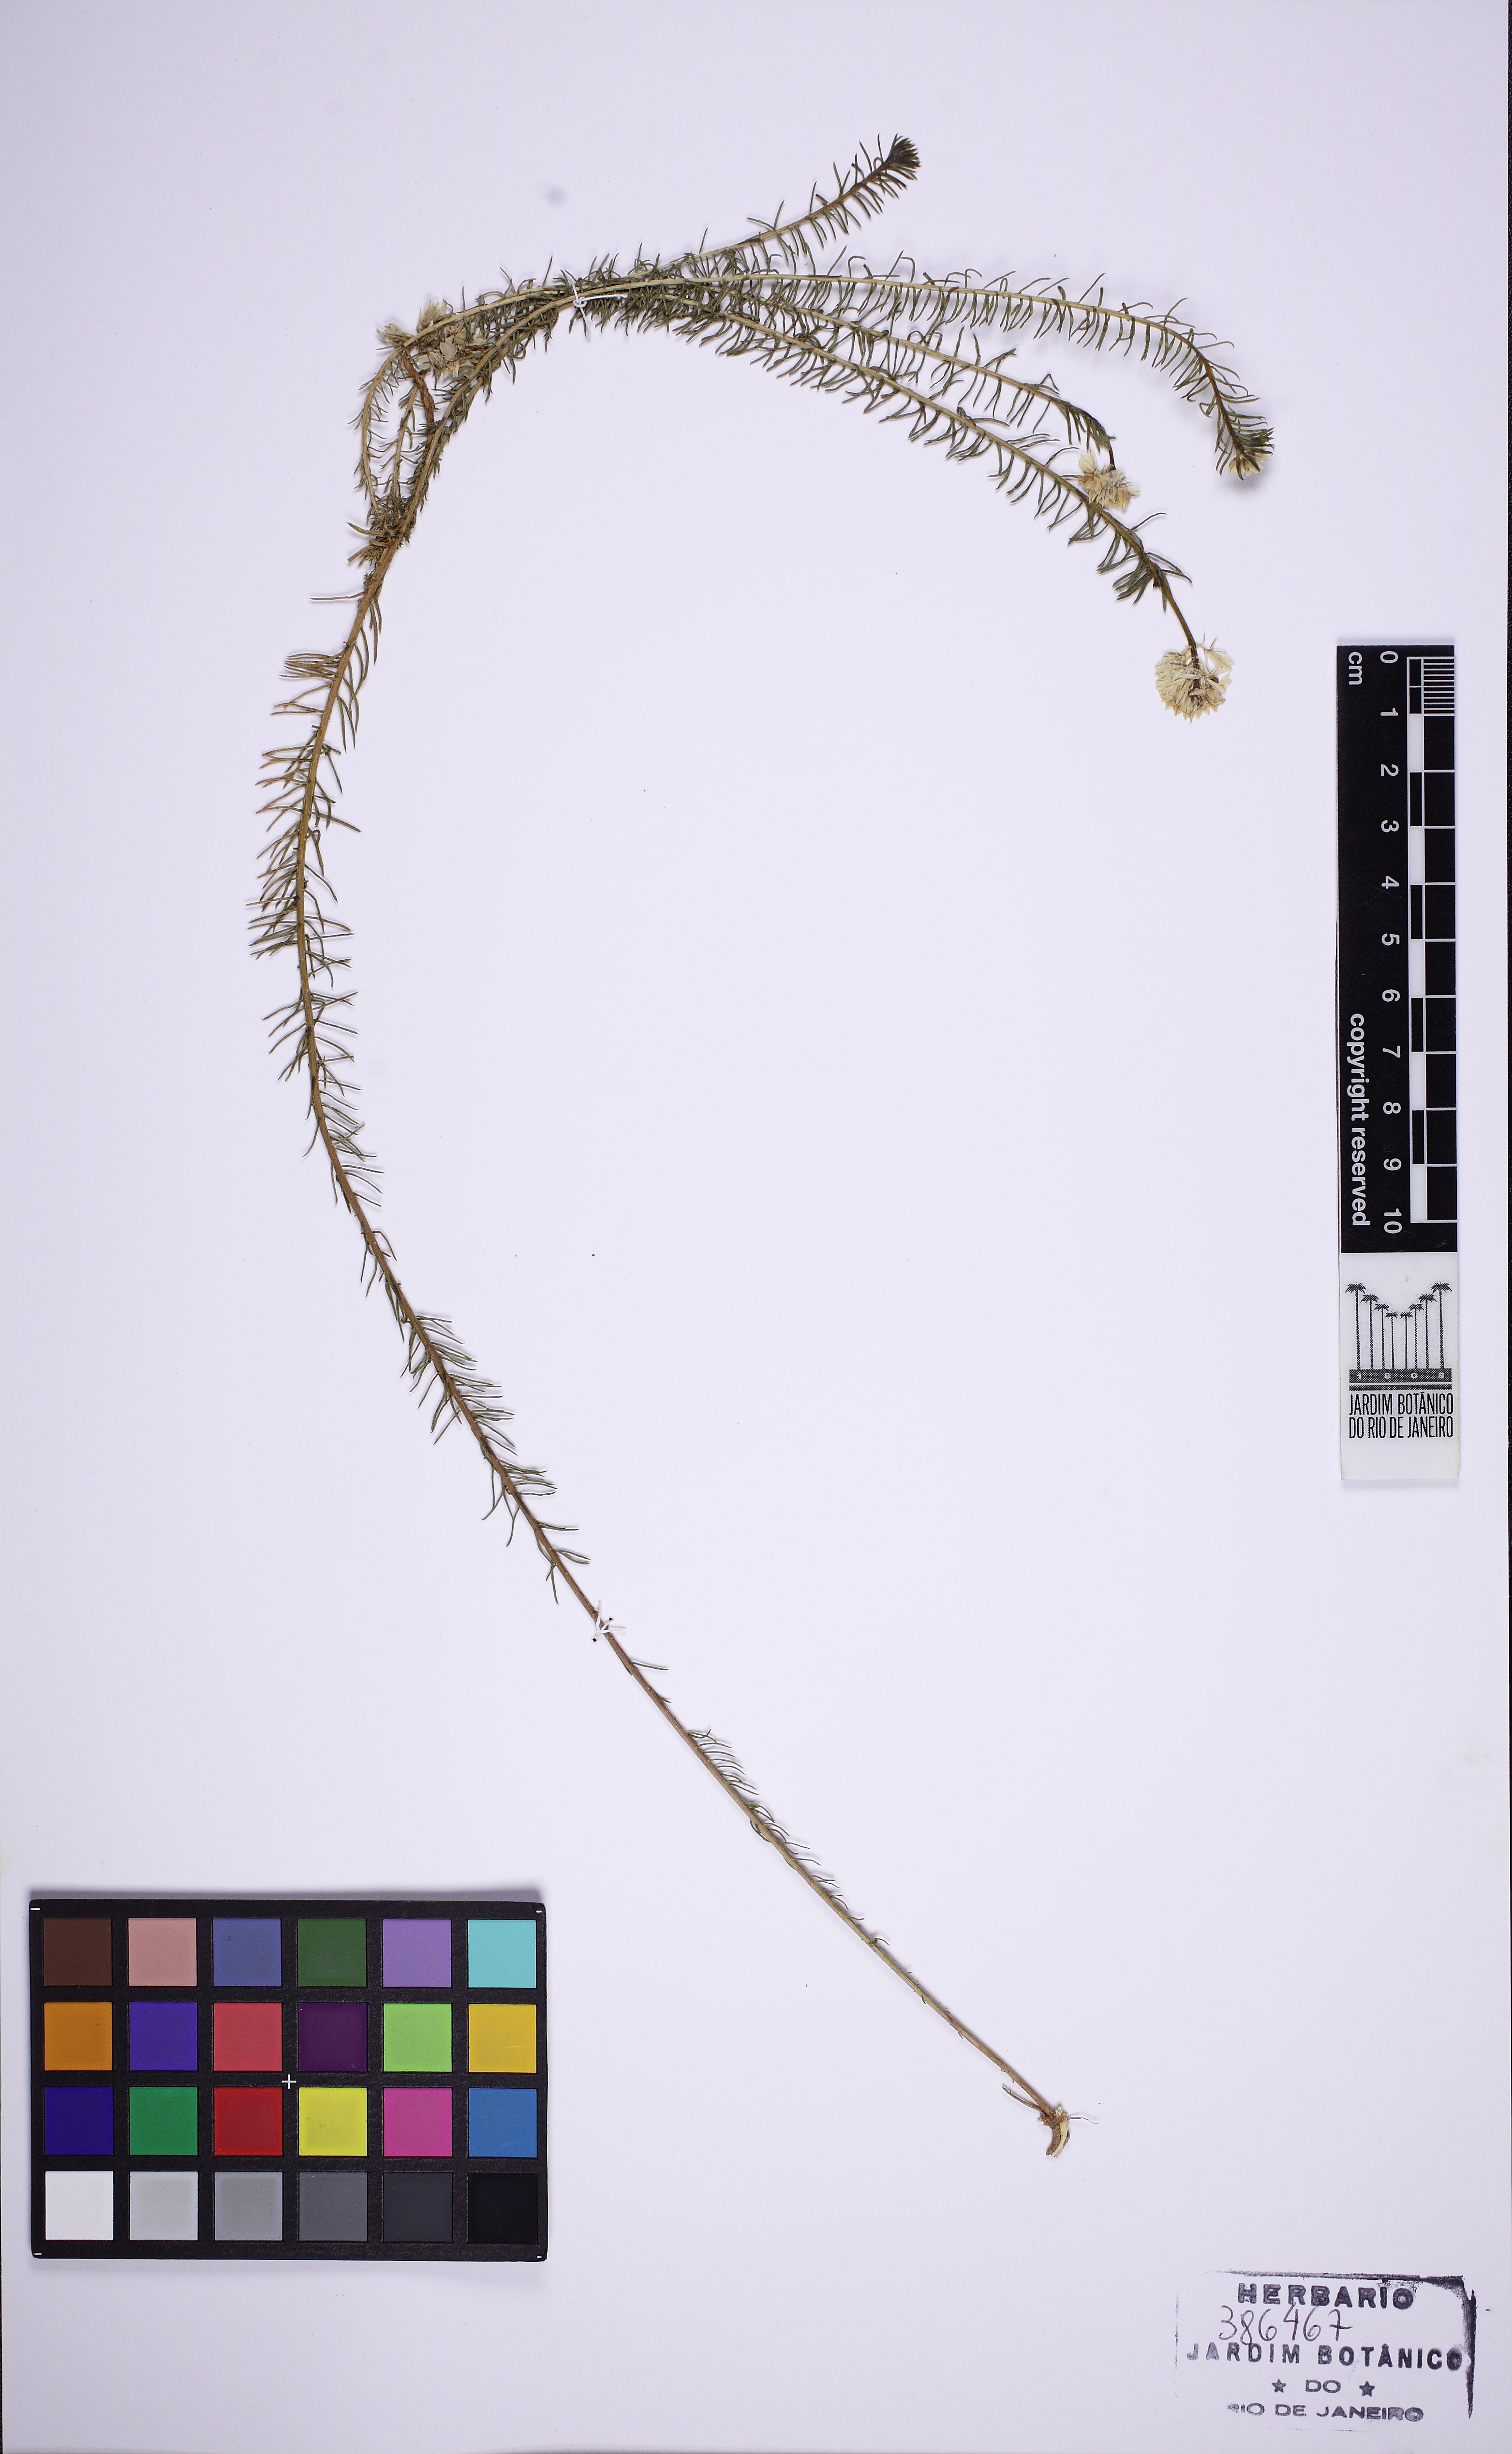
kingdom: Plantae
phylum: Tracheophyta
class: Magnoliopsida
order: Fabales
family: Polygalaceae
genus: Polygala
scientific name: Polygala cyparissias
